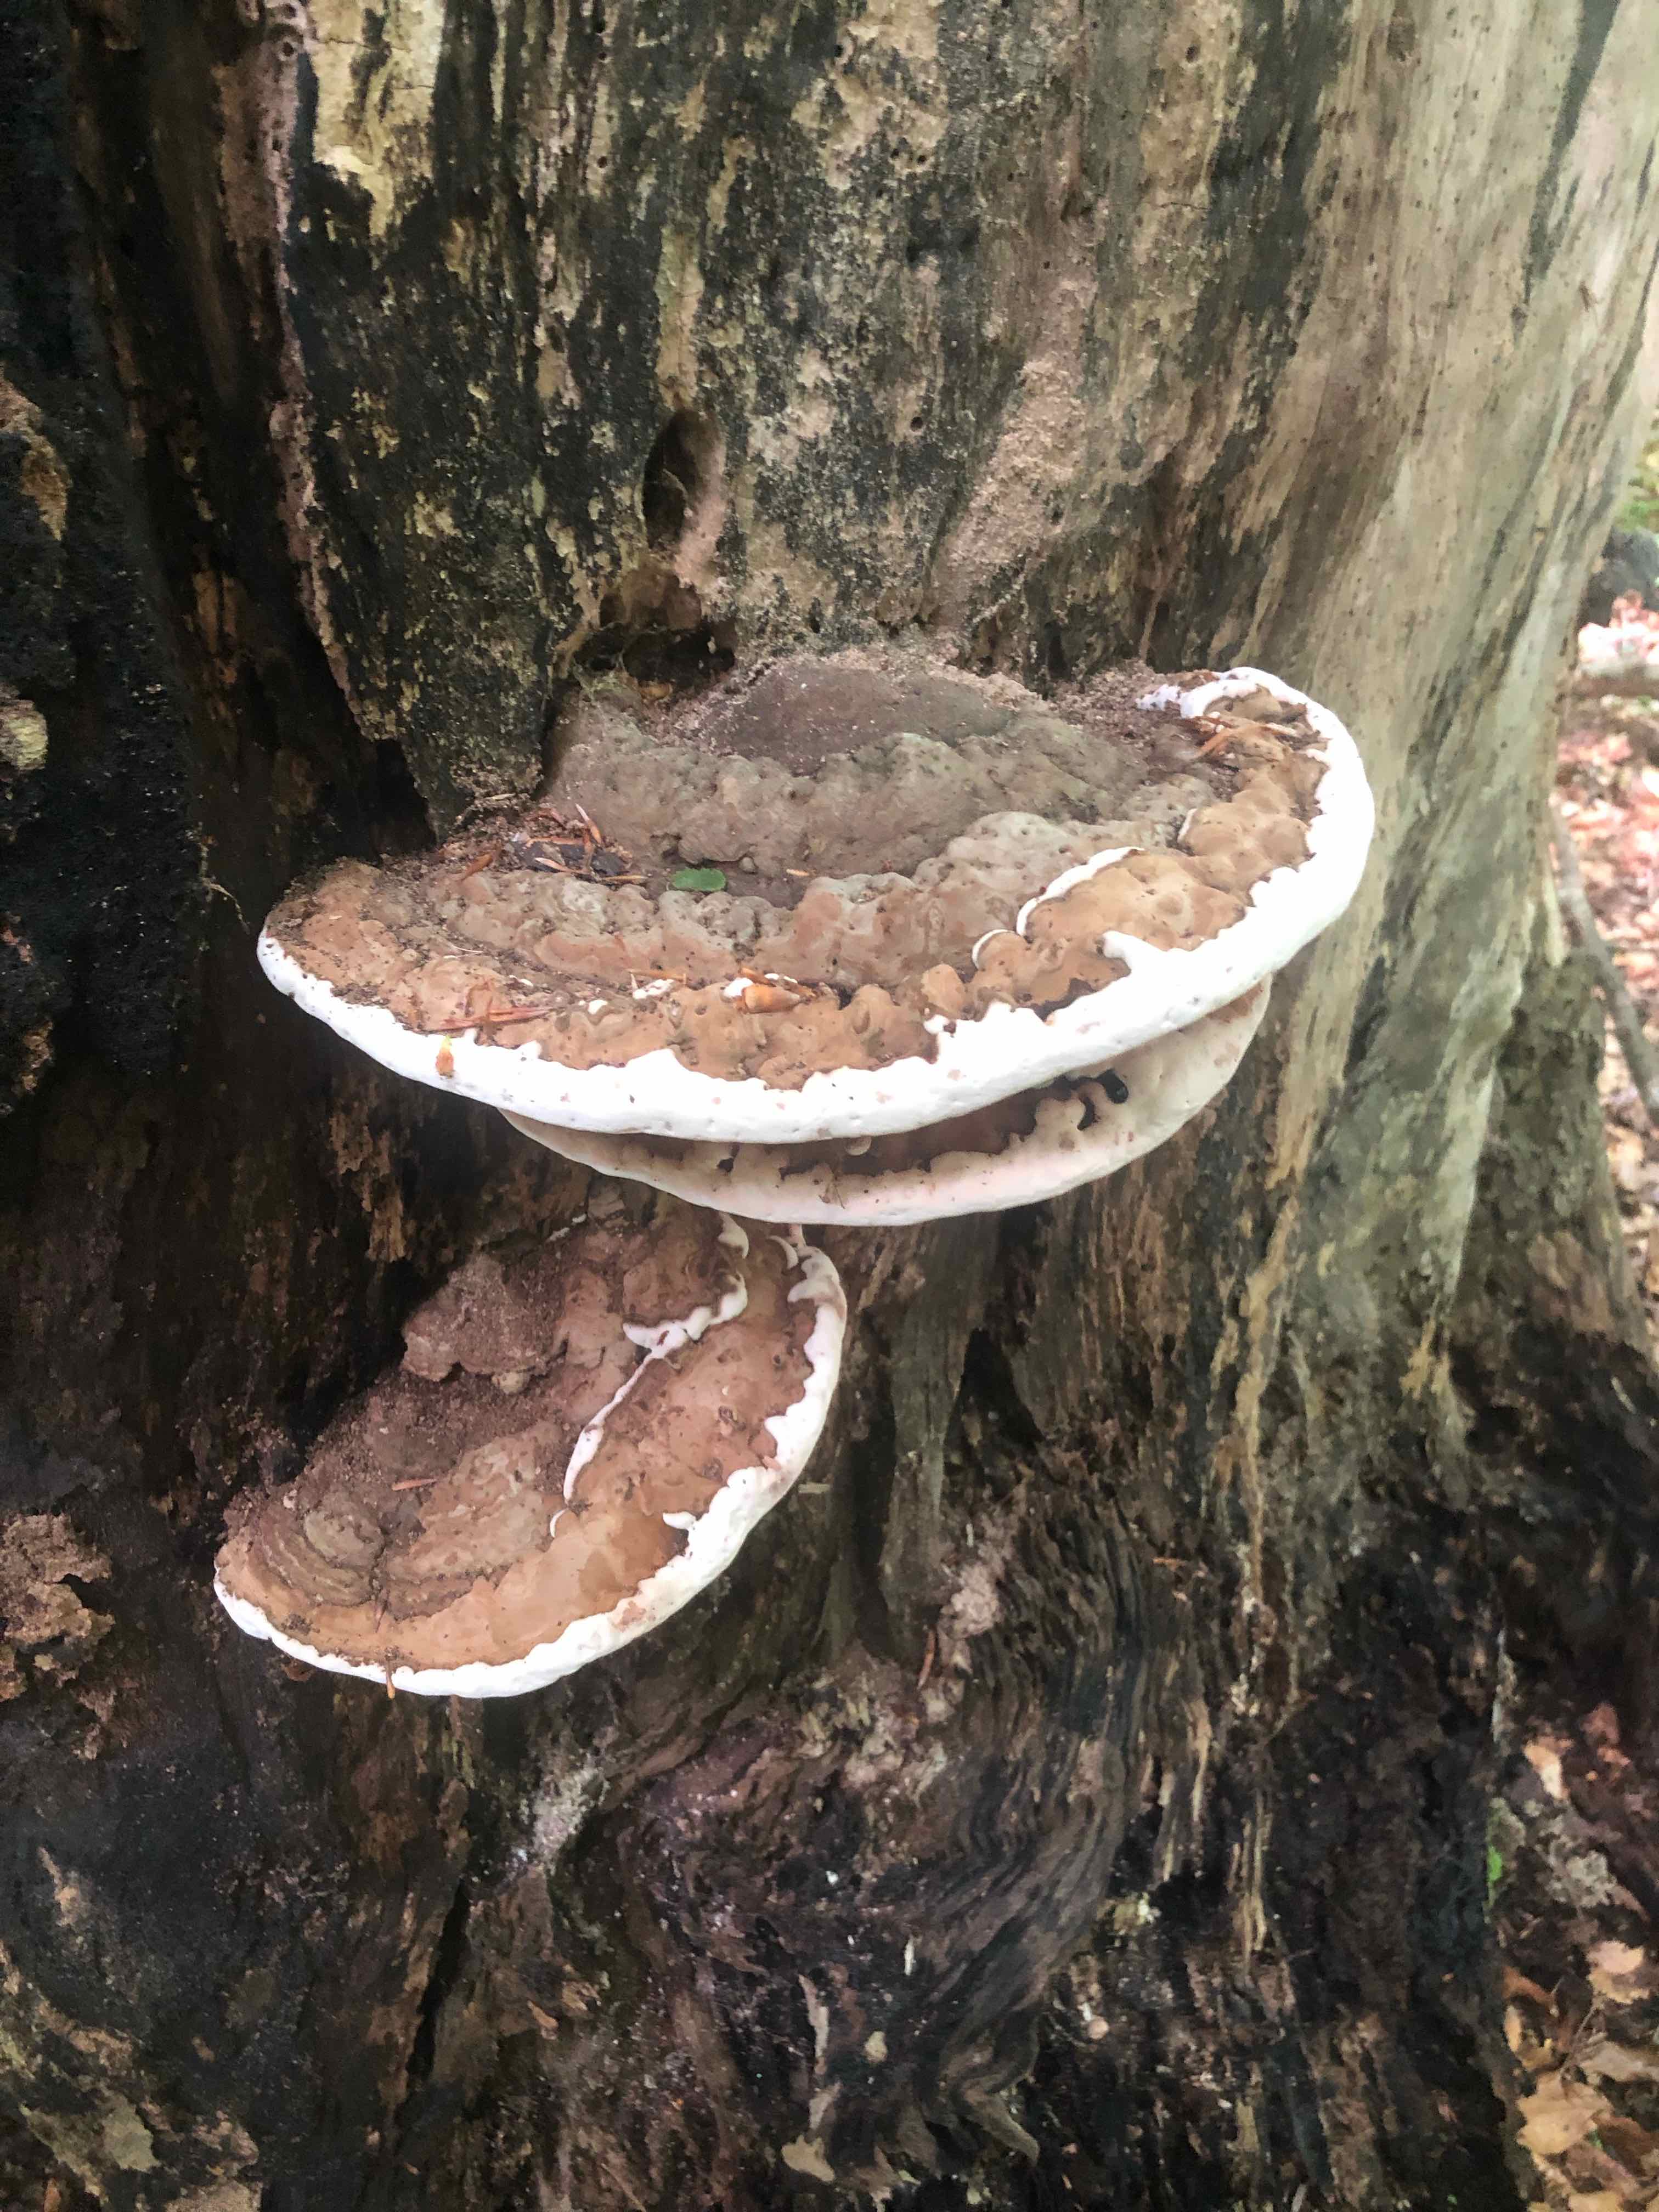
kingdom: Fungi
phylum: Basidiomycota
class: Agaricomycetes
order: Polyporales
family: Polyporaceae
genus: Ganoderma
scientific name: Ganoderma applanatum
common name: flad lakporesvamp
